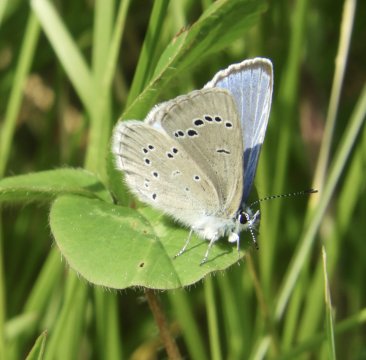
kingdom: Animalia
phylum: Arthropoda
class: Insecta
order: Lepidoptera
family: Lycaenidae
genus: Glaucopsyche
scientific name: Glaucopsyche lygdamus
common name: Silvery Blue
